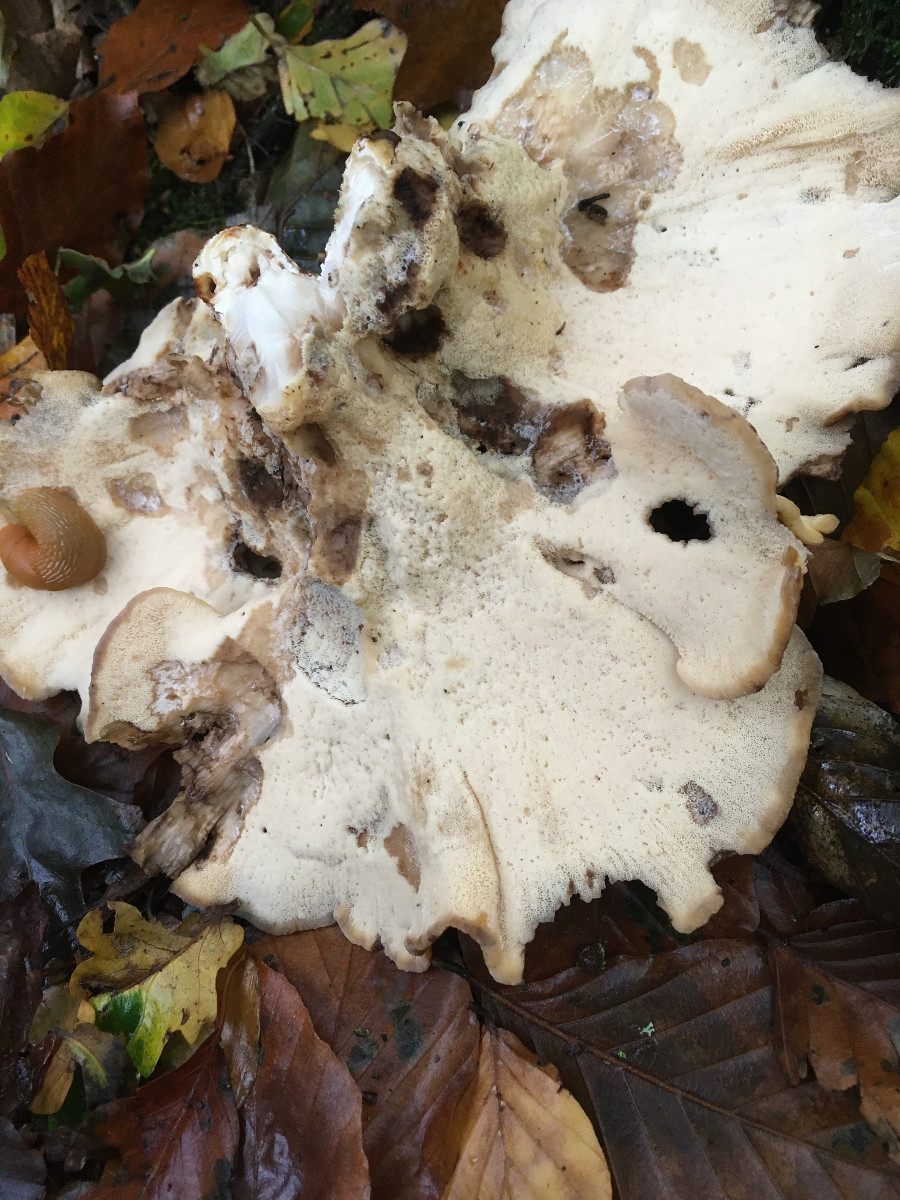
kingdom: Fungi
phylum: Basidiomycota
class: Agaricomycetes
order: Polyporales
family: Meripilaceae
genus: Meripilus
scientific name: Meripilus giganteus
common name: kæmpeporesvamp
